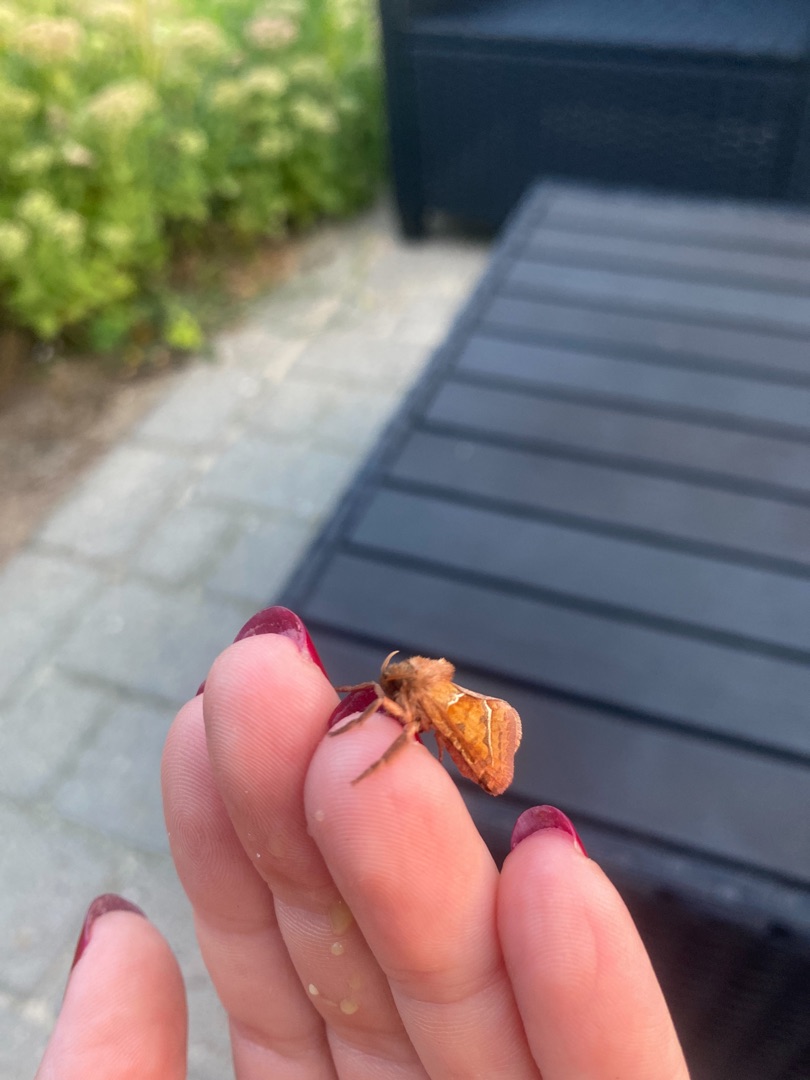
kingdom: Animalia
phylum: Arthropoda
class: Insecta
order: Lepidoptera
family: Hepialidae
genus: Triodia
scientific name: Triodia sylvina
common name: Skræpperodæder
